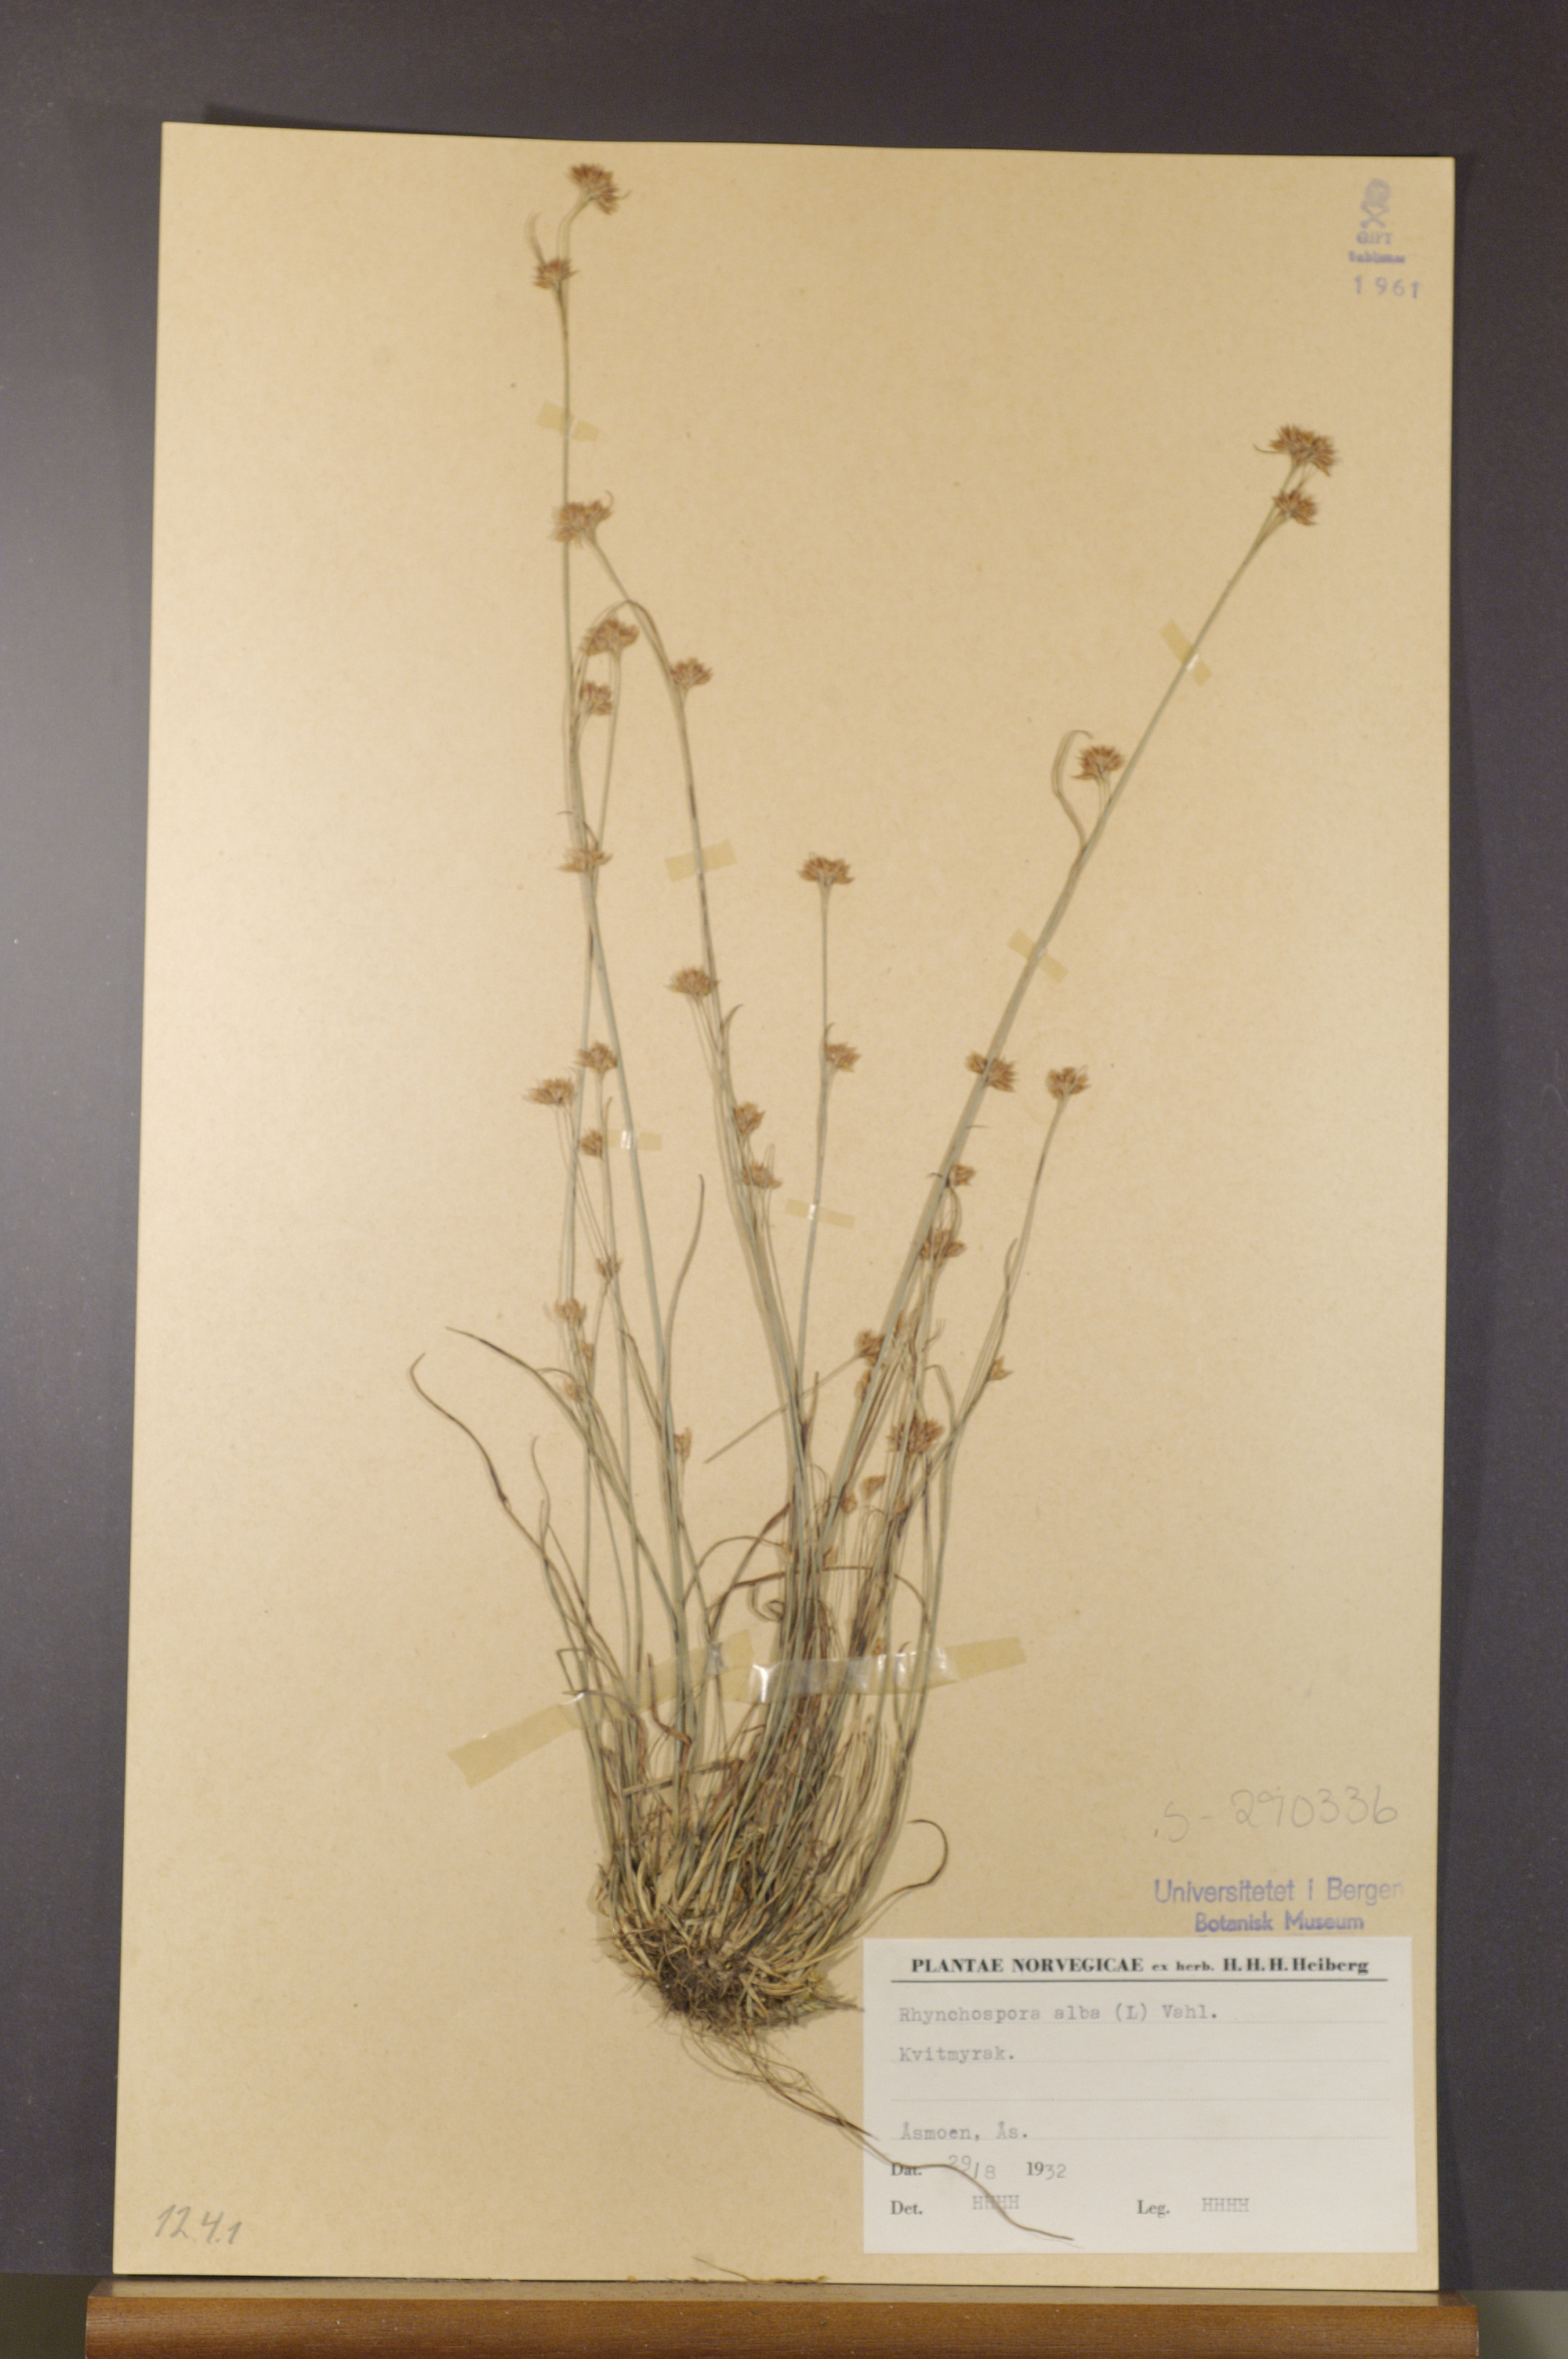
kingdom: Plantae
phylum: Tracheophyta
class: Liliopsida
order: Poales
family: Cyperaceae
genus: Rhynchospora
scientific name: Rhynchospora
